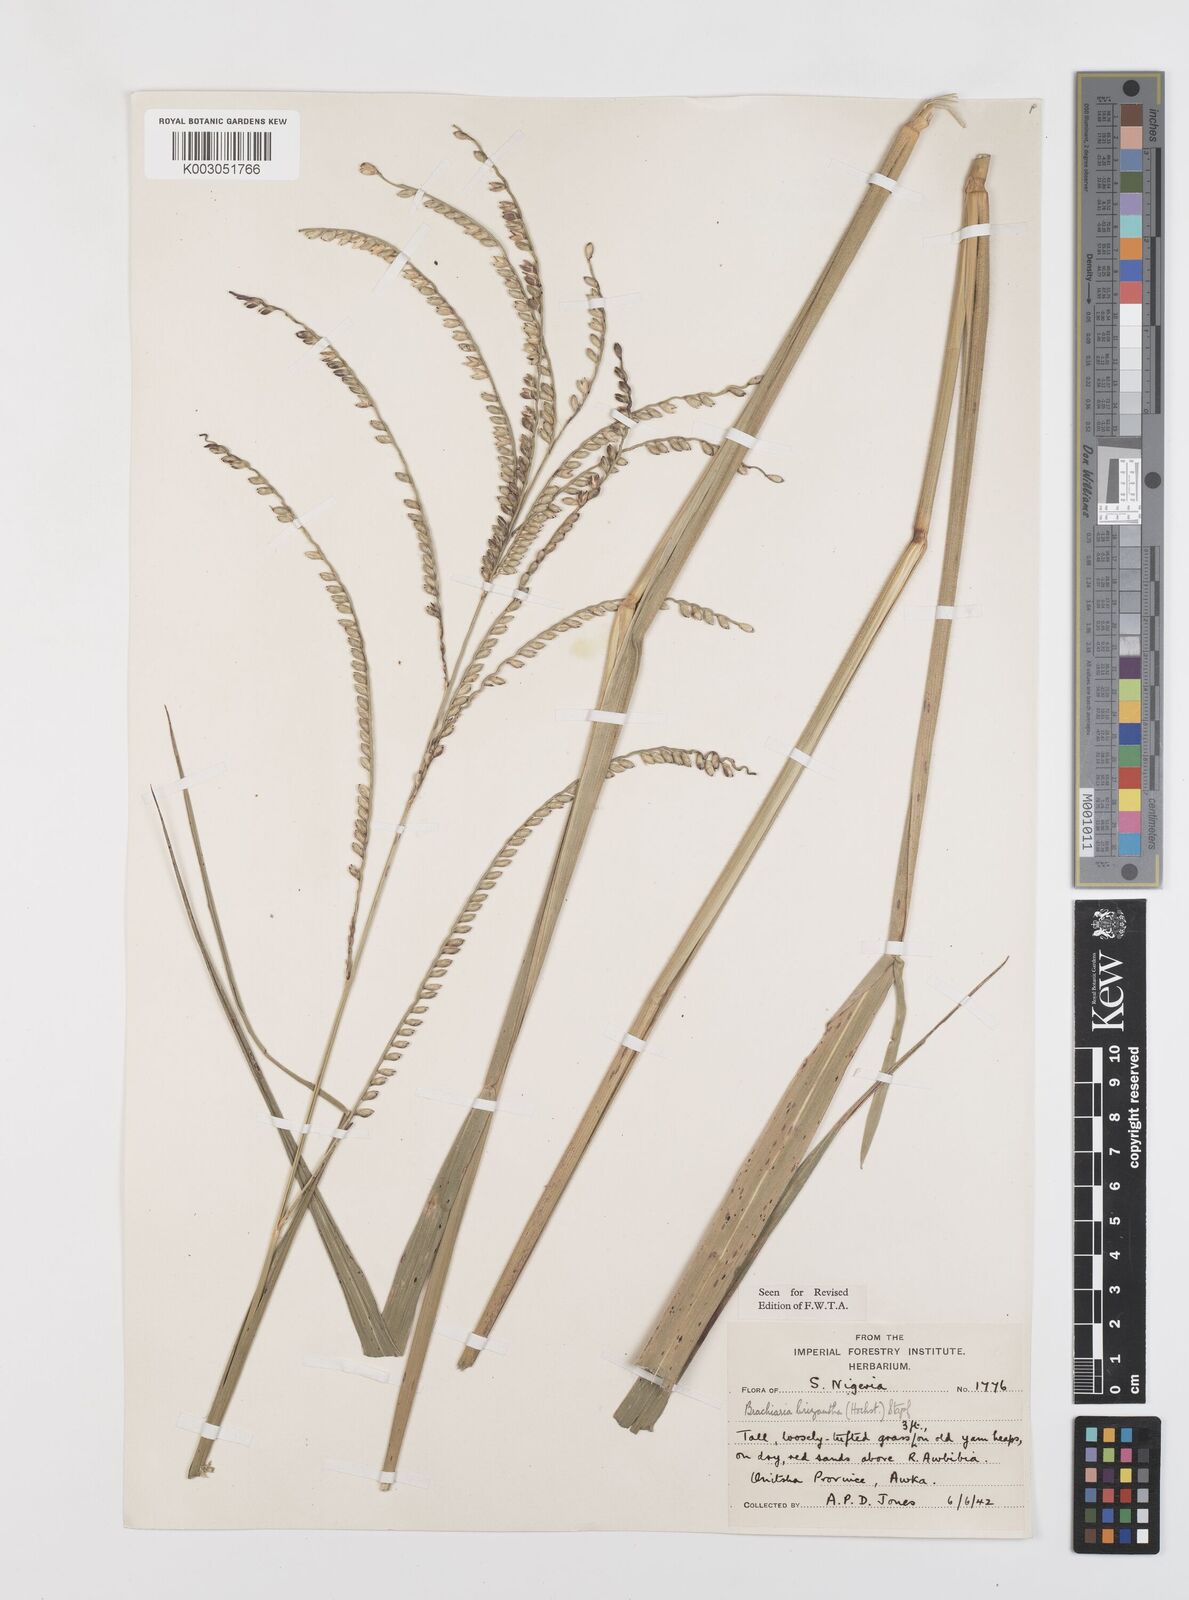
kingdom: Plantae
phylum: Tracheophyta
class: Liliopsida
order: Poales
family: Poaceae
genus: Urochloa
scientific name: Urochloa brizantha
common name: Palisade signalgrass
